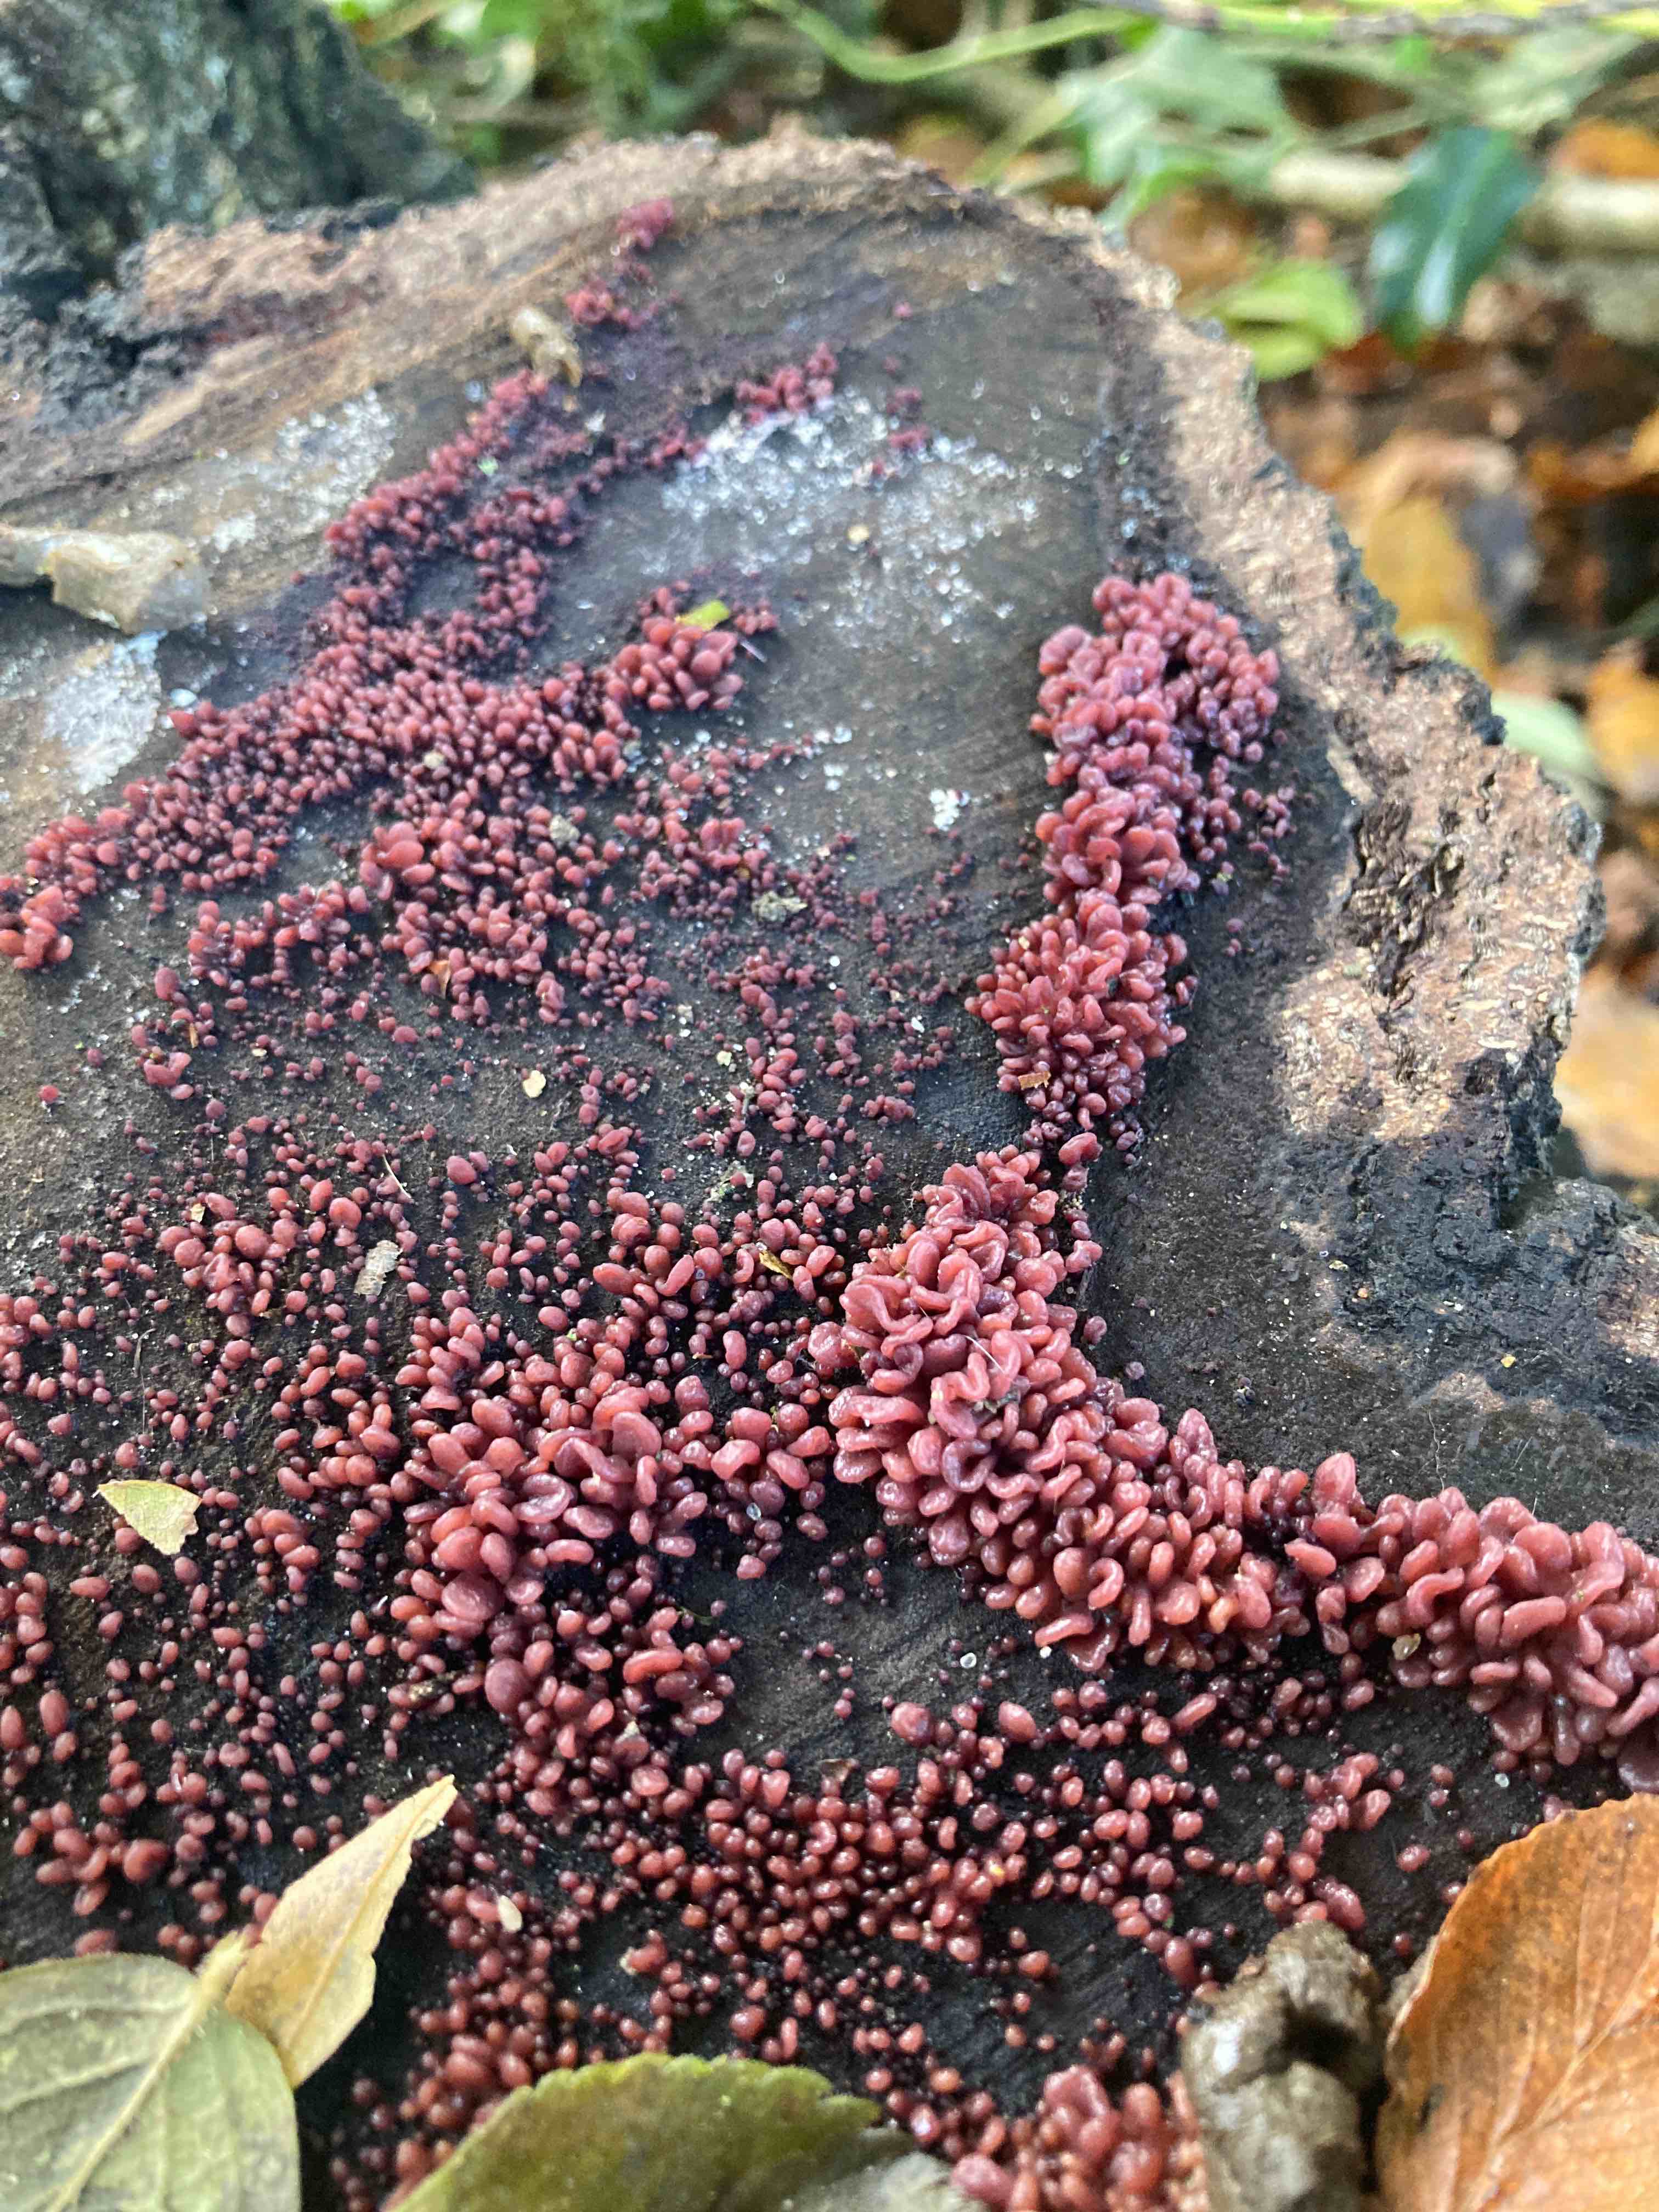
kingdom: Fungi
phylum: Ascomycota
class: Leotiomycetes
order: Helotiales
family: Gelatinodiscaceae
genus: Ascocoryne
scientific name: Ascocoryne sarcoides
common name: rødlilla sejskive
